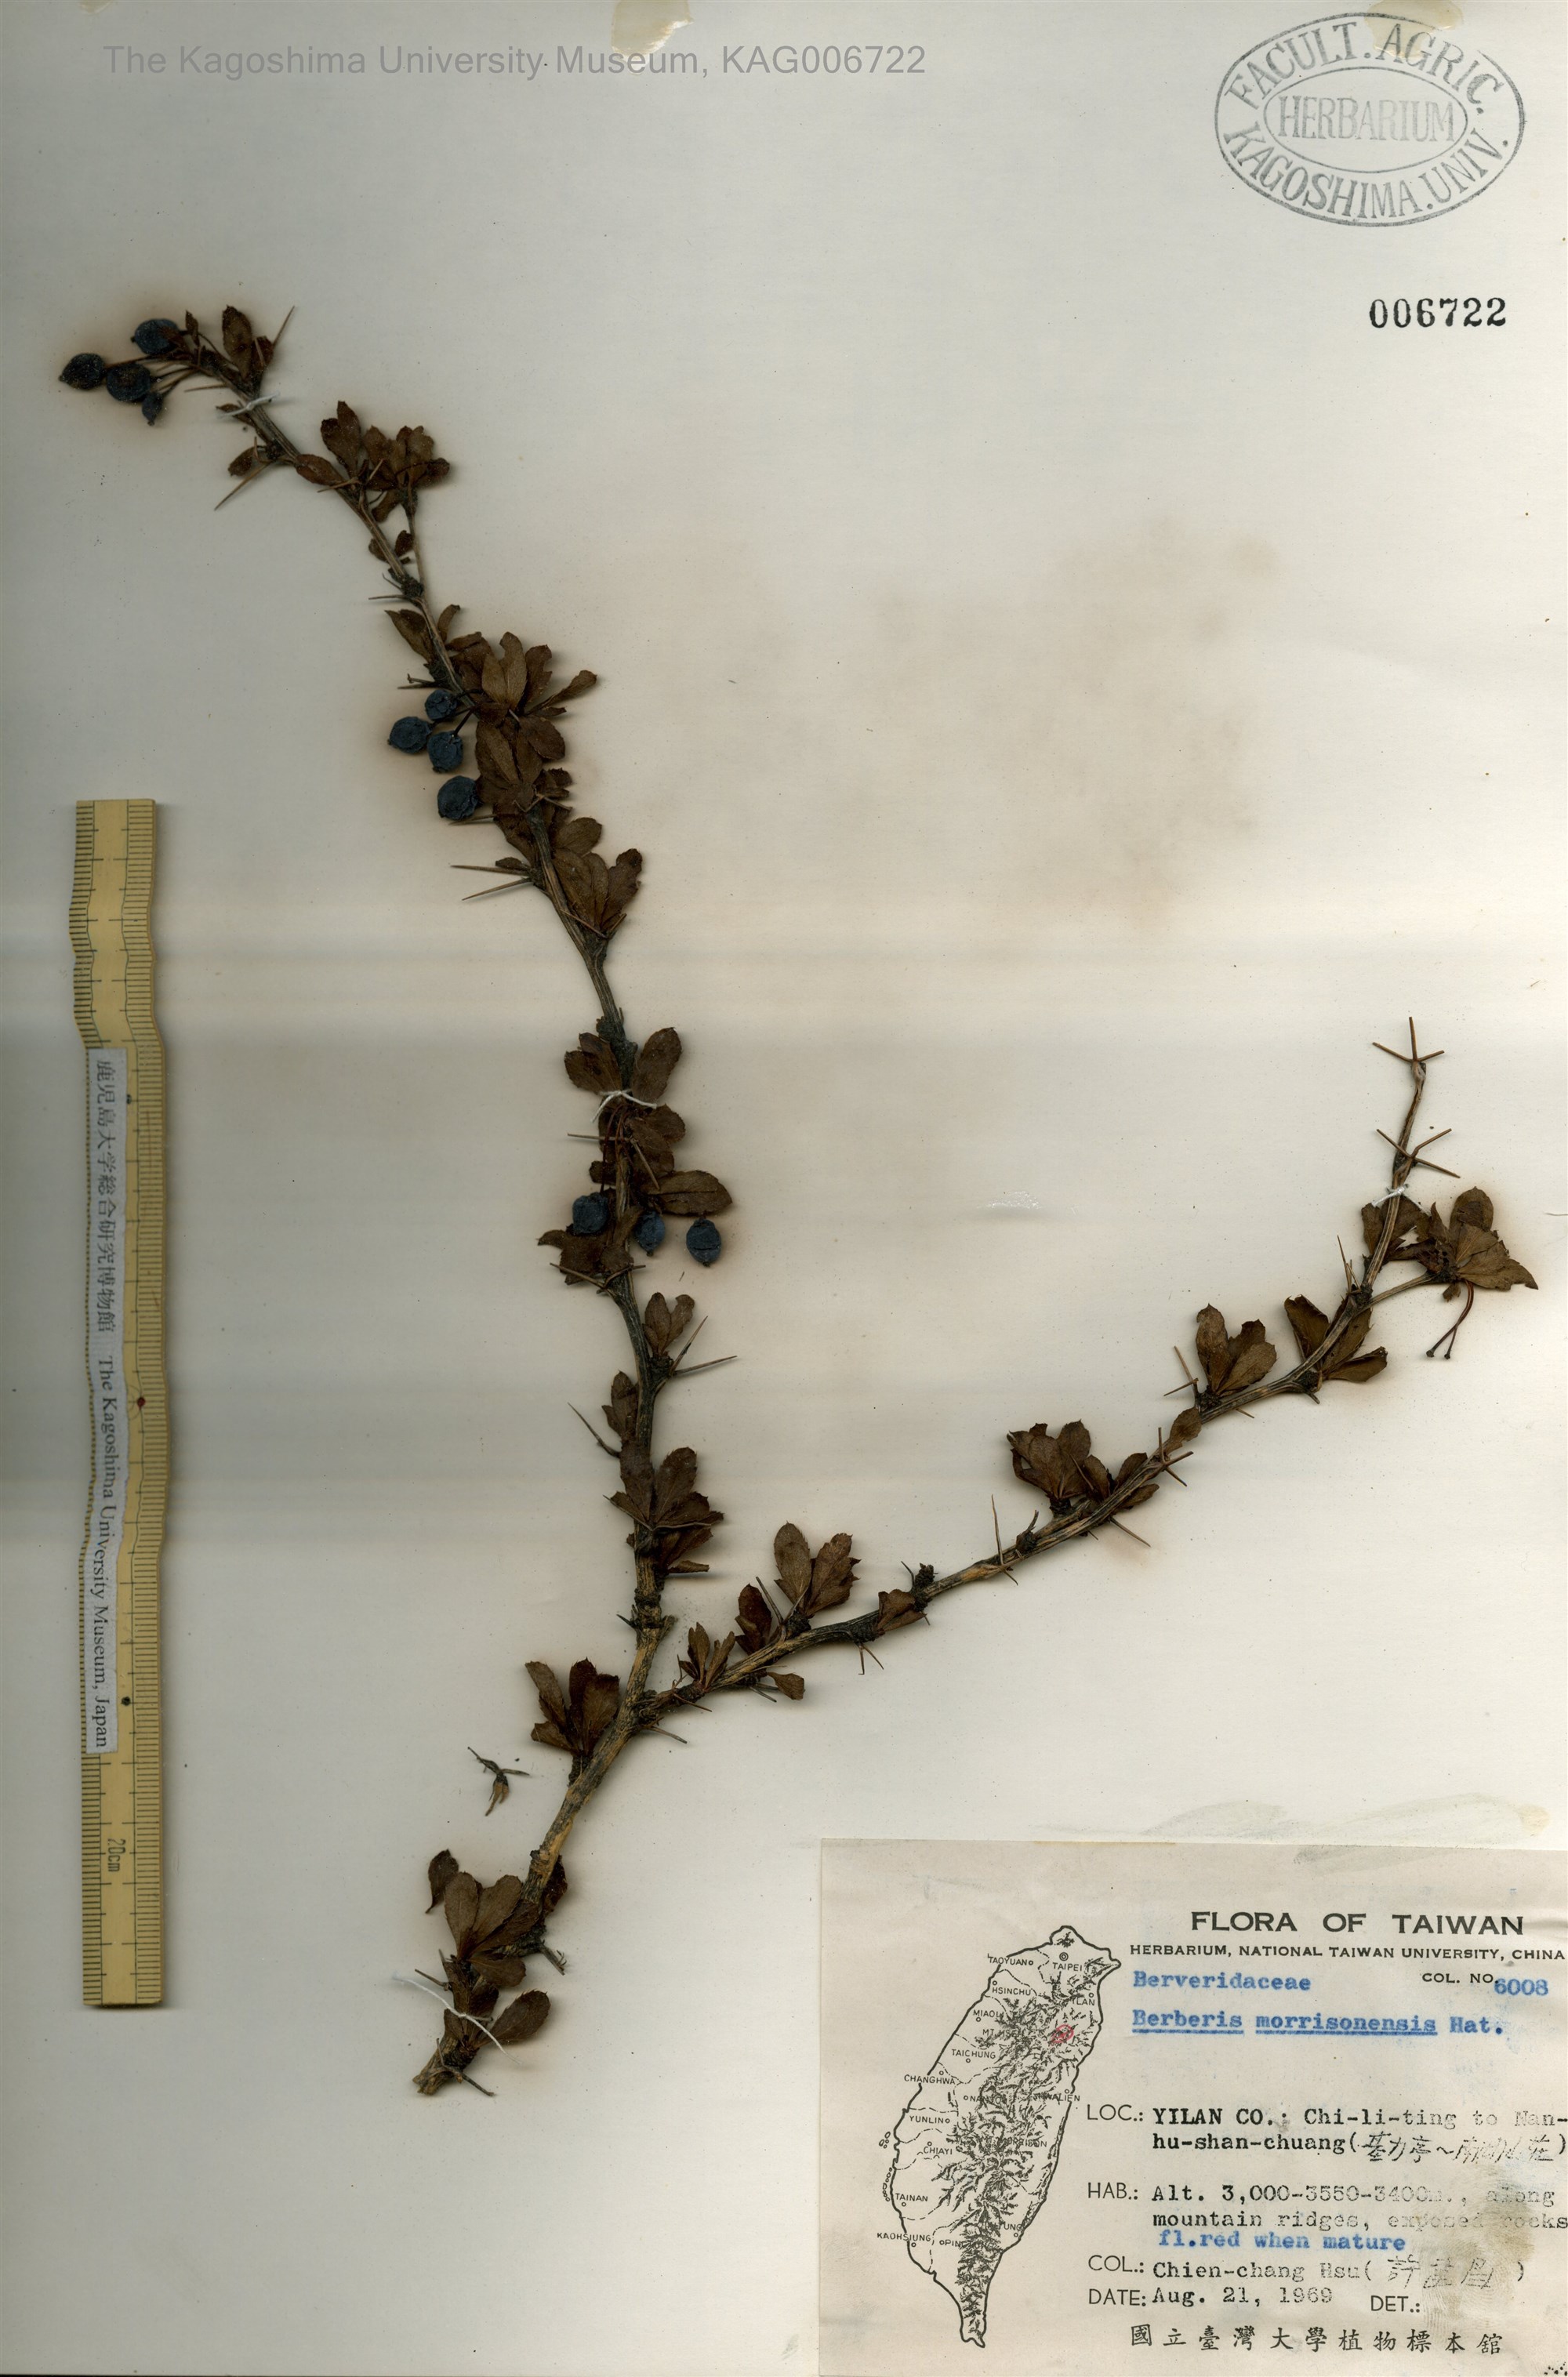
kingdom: Plantae
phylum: Tracheophyta
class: Magnoliopsida
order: Ranunculales
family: Berberidaceae
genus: Berberis
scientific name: Berberis morrisonensis
